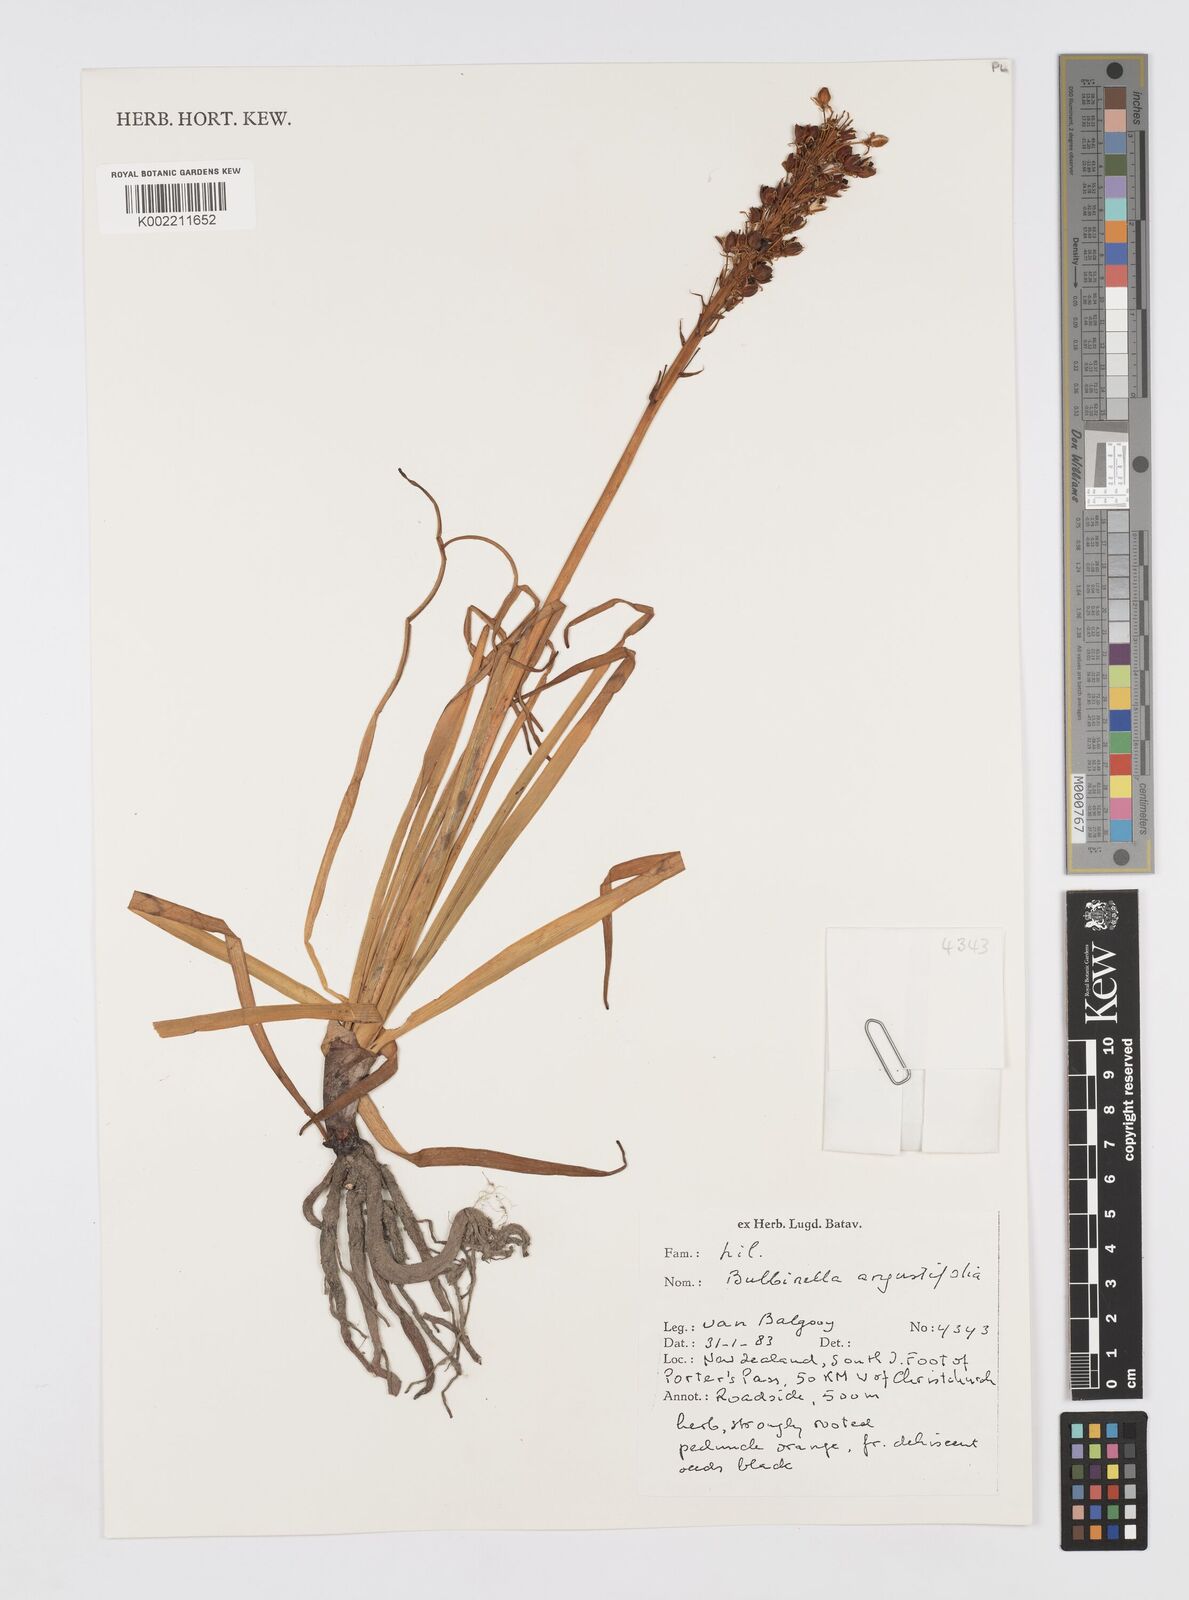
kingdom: Plantae
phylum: Tracheophyta
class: Liliopsida
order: Asparagales
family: Asphodelaceae
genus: Bulbinella
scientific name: Bulbinella angustifolia
